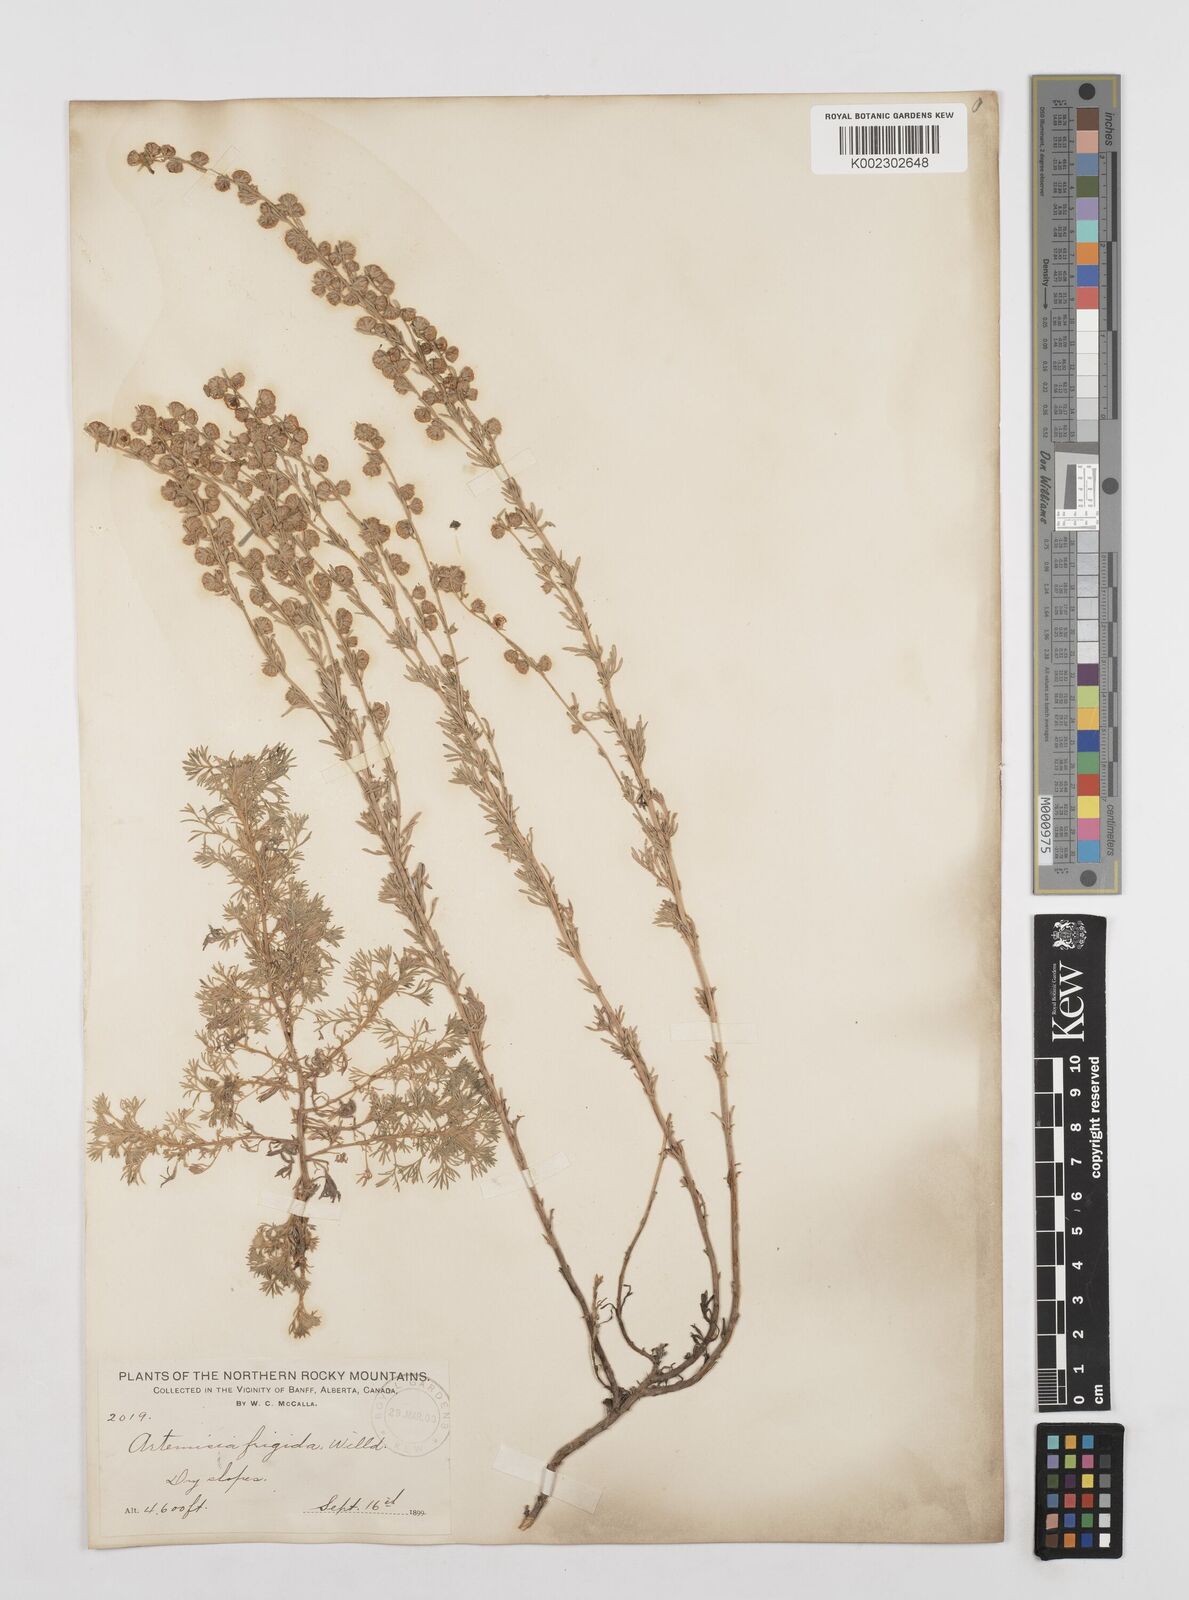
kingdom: Plantae
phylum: Tracheophyta
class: Magnoliopsida
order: Asterales
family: Asteraceae
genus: Artemisia
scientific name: Artemisia frigida
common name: Prairie sagewort
